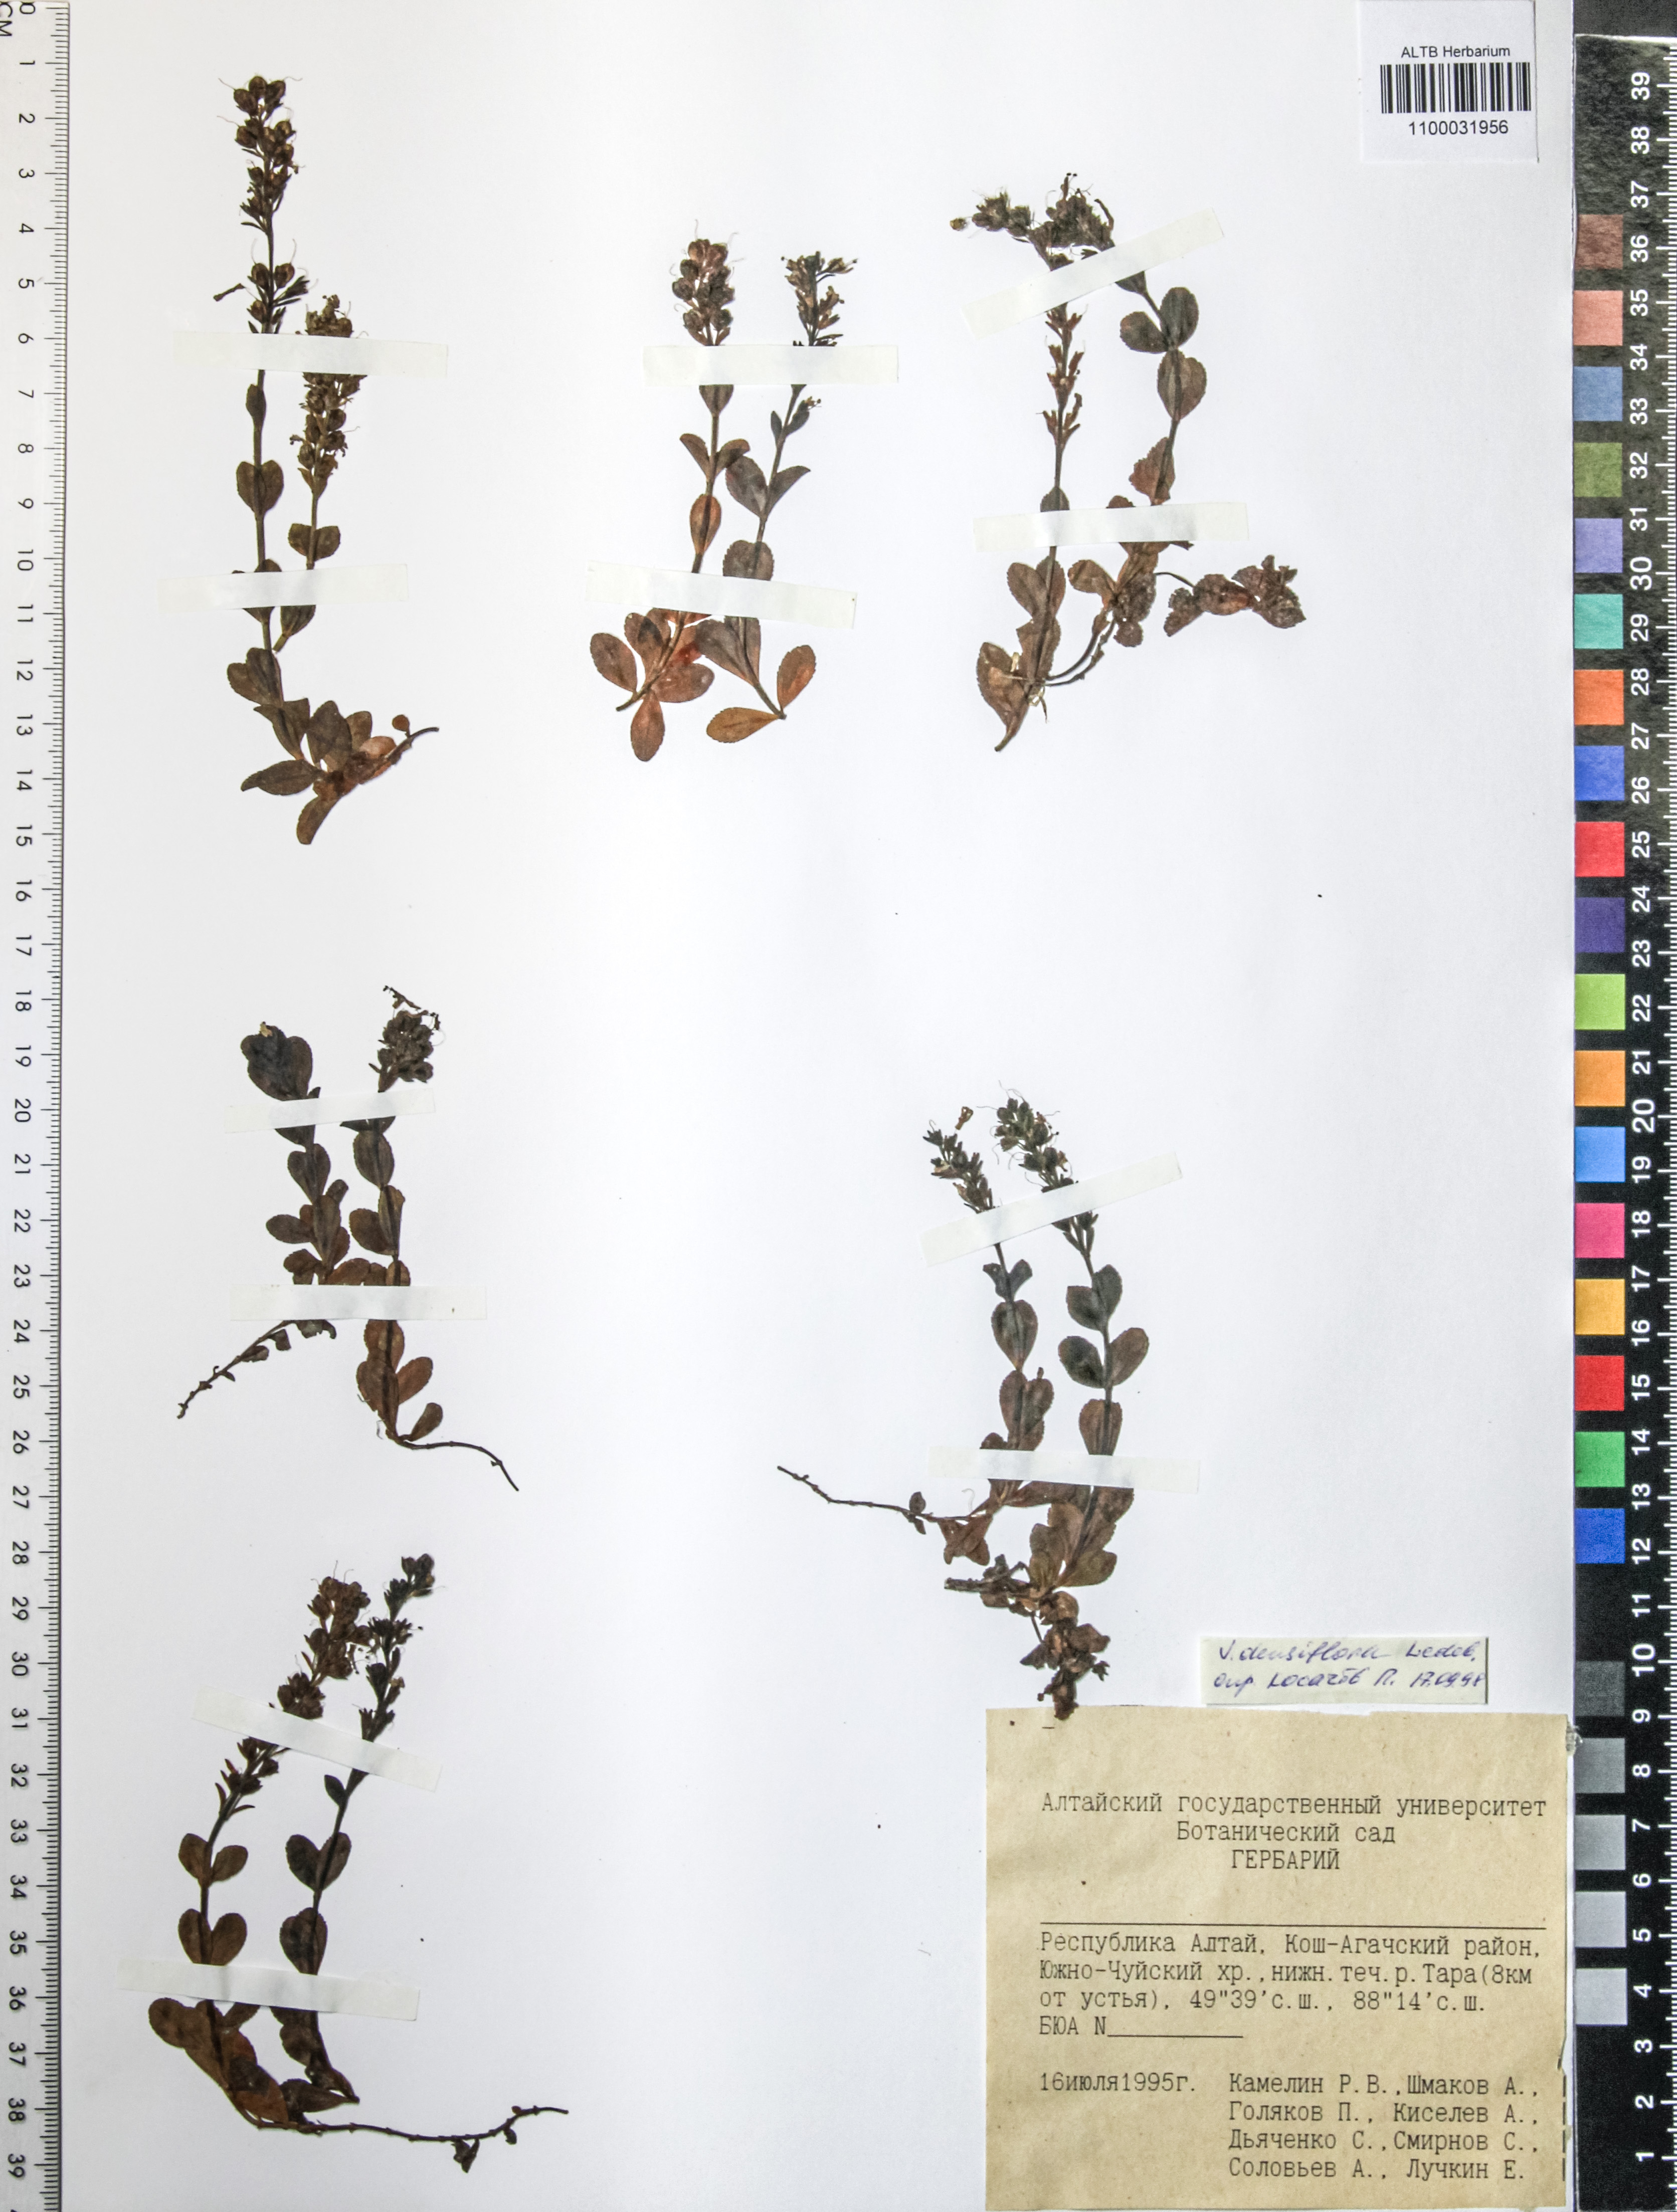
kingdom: Plantae
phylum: Tracheophyta
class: Magnoliopsida
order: Lamiales
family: Plantaginaceae
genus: Veronica
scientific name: Veronica densiflora
